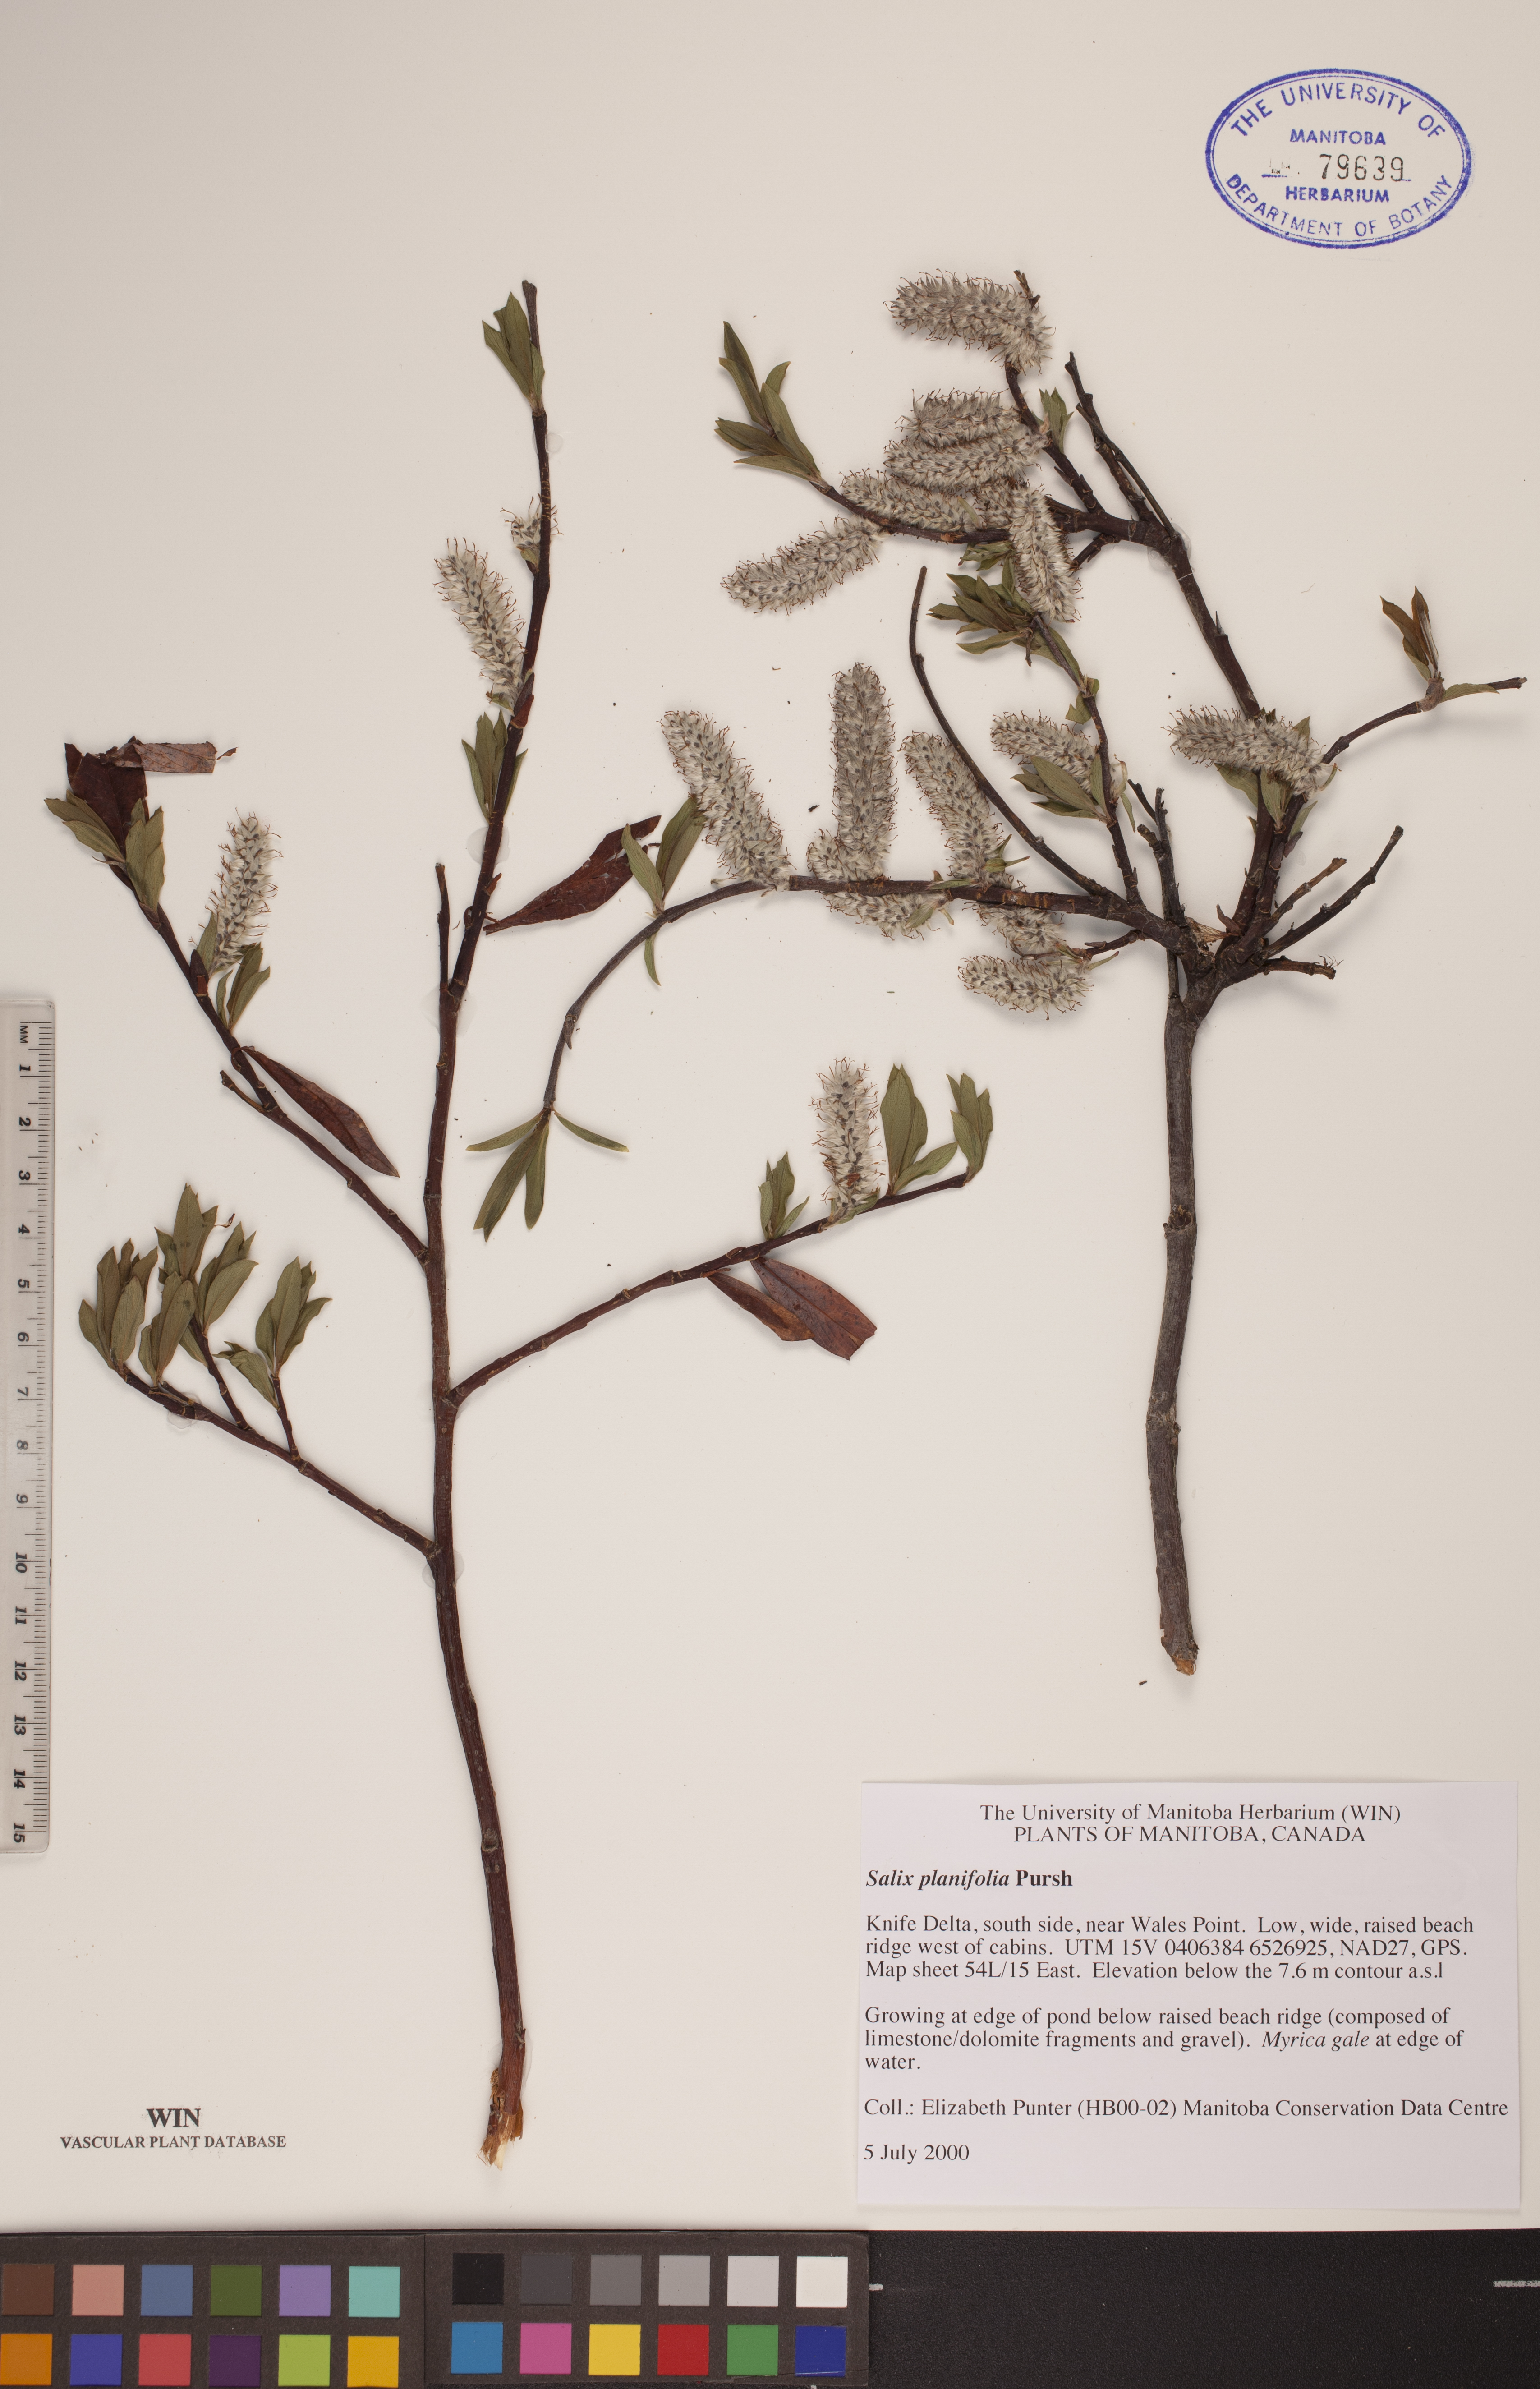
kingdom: Plantae
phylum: Tracheophyta
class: Magnoliopsida
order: Malpighiales
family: Salicaceae
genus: Salix
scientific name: Salix planifolia
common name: Mountain willow
